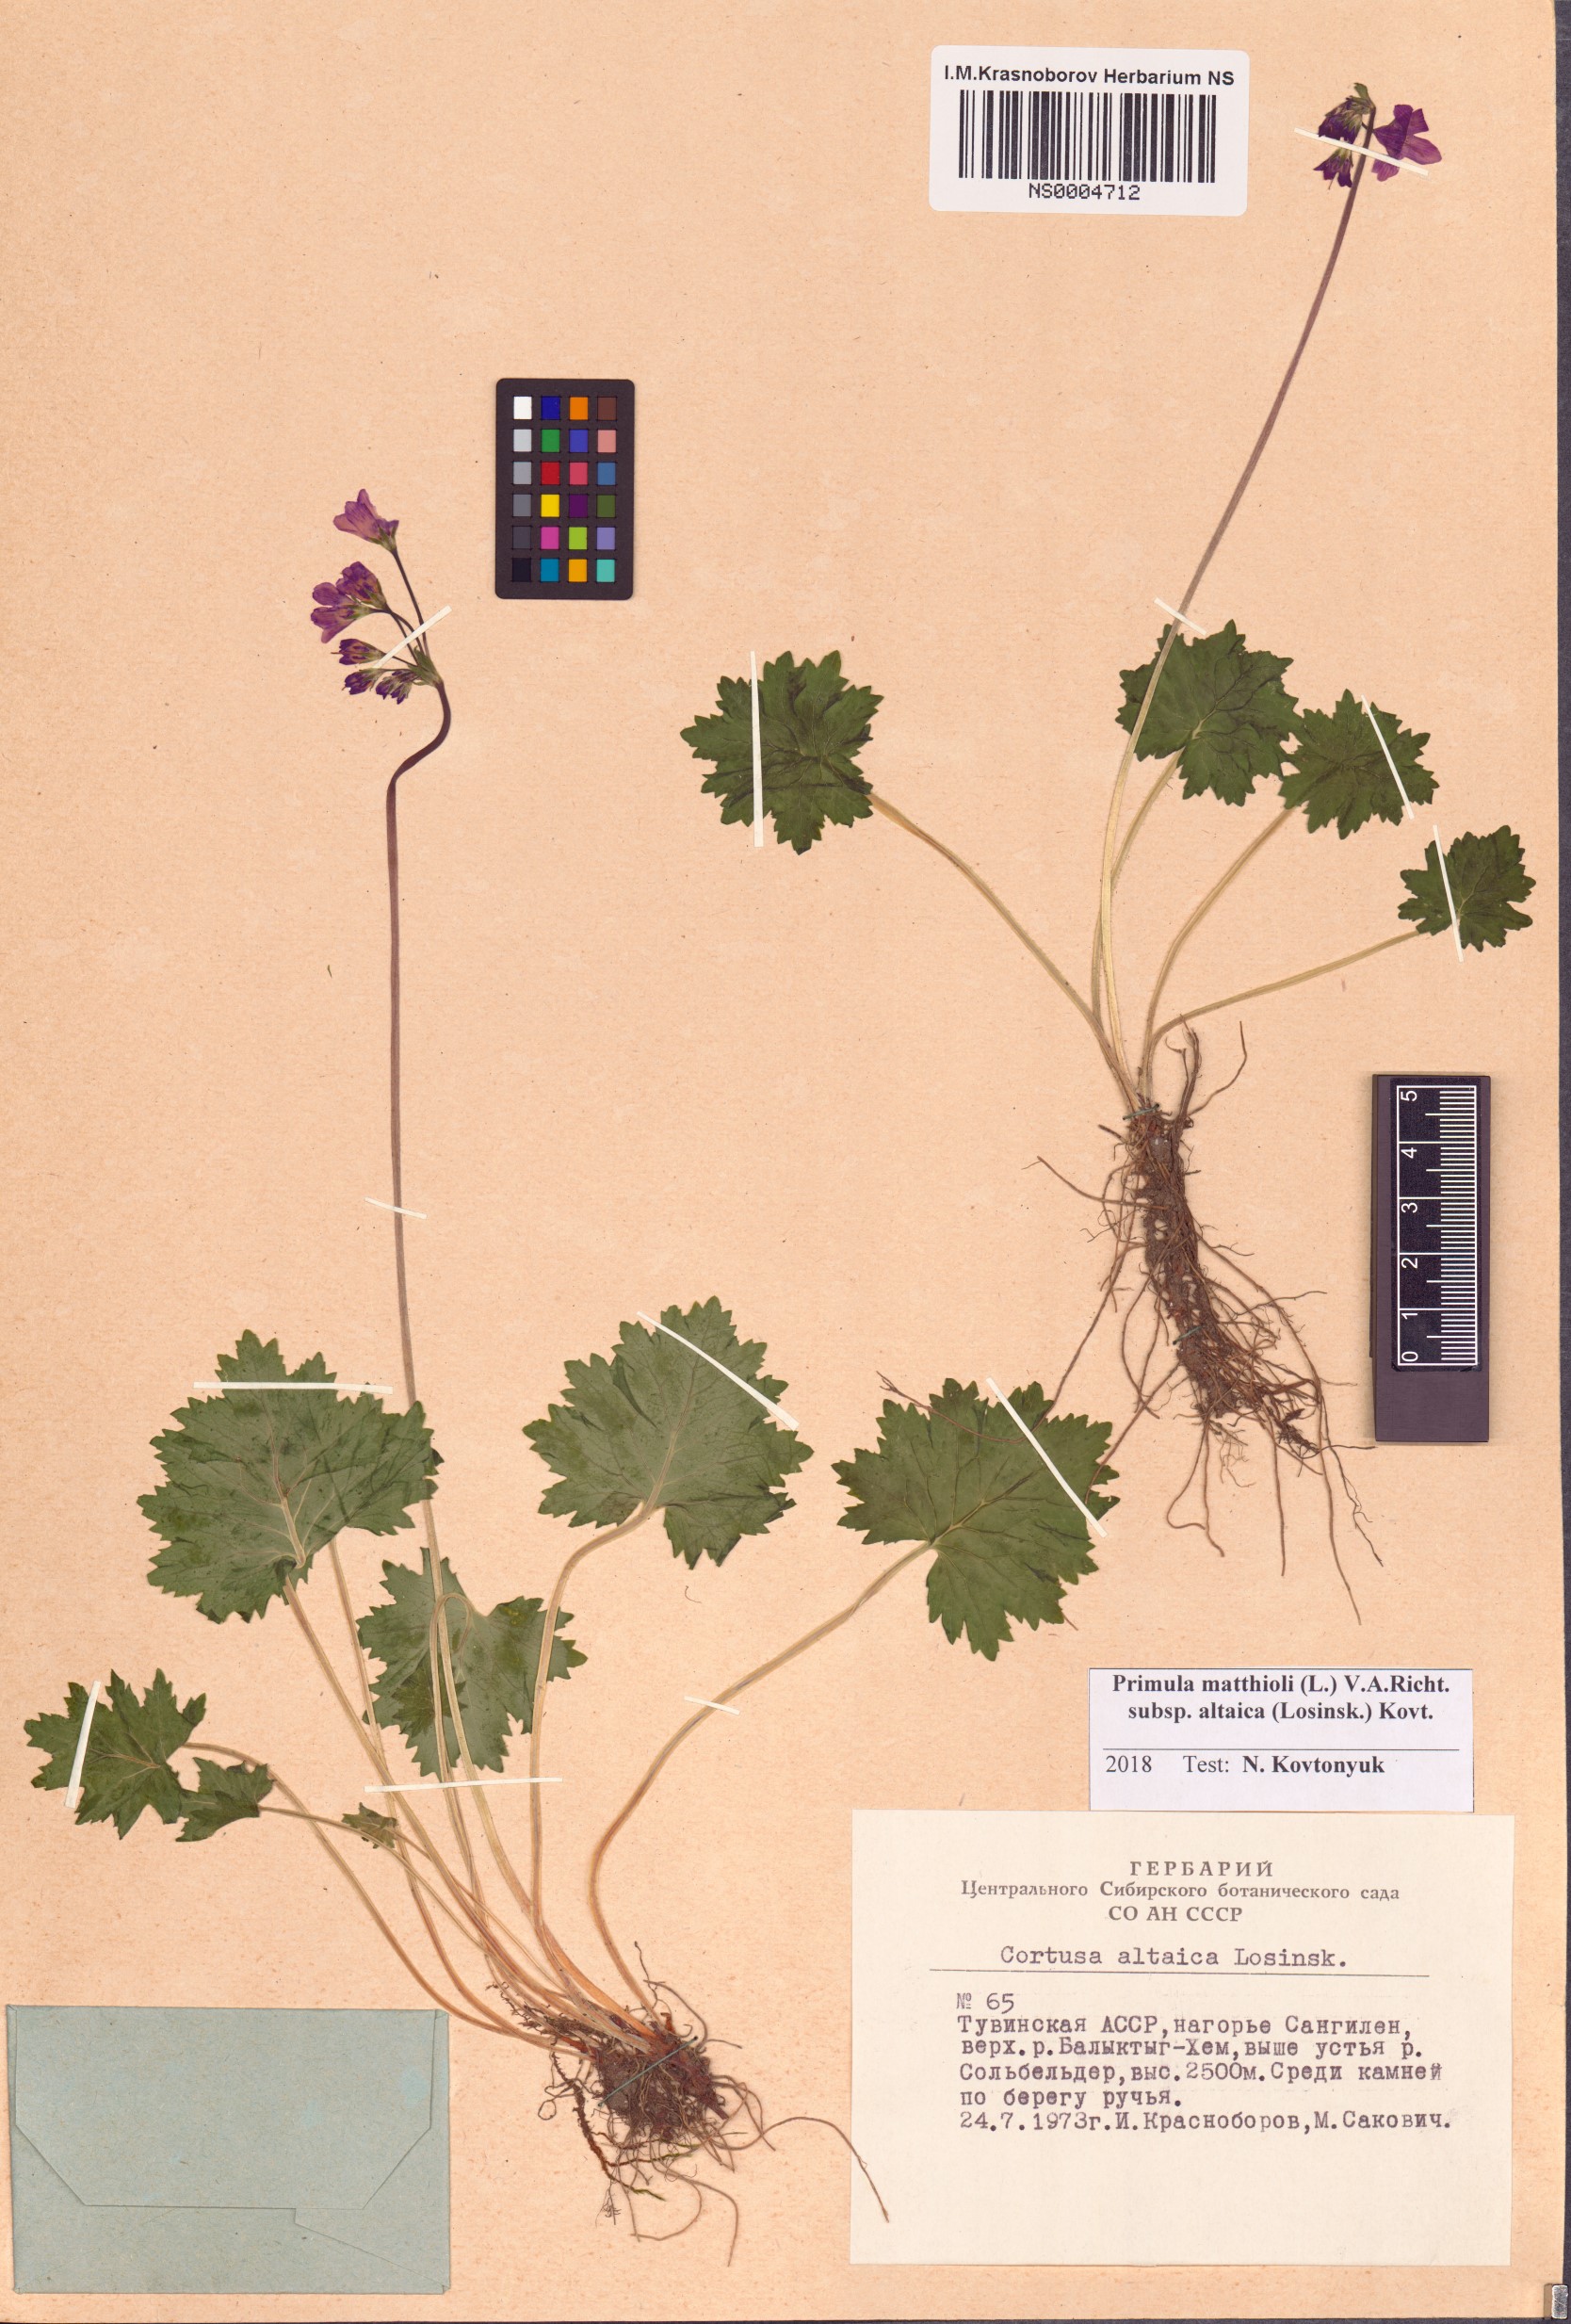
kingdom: Plantae
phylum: Tracheophyta
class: Magnoliopsida
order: Ericales
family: Primulaceae
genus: Primula
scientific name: Primula matthioli
